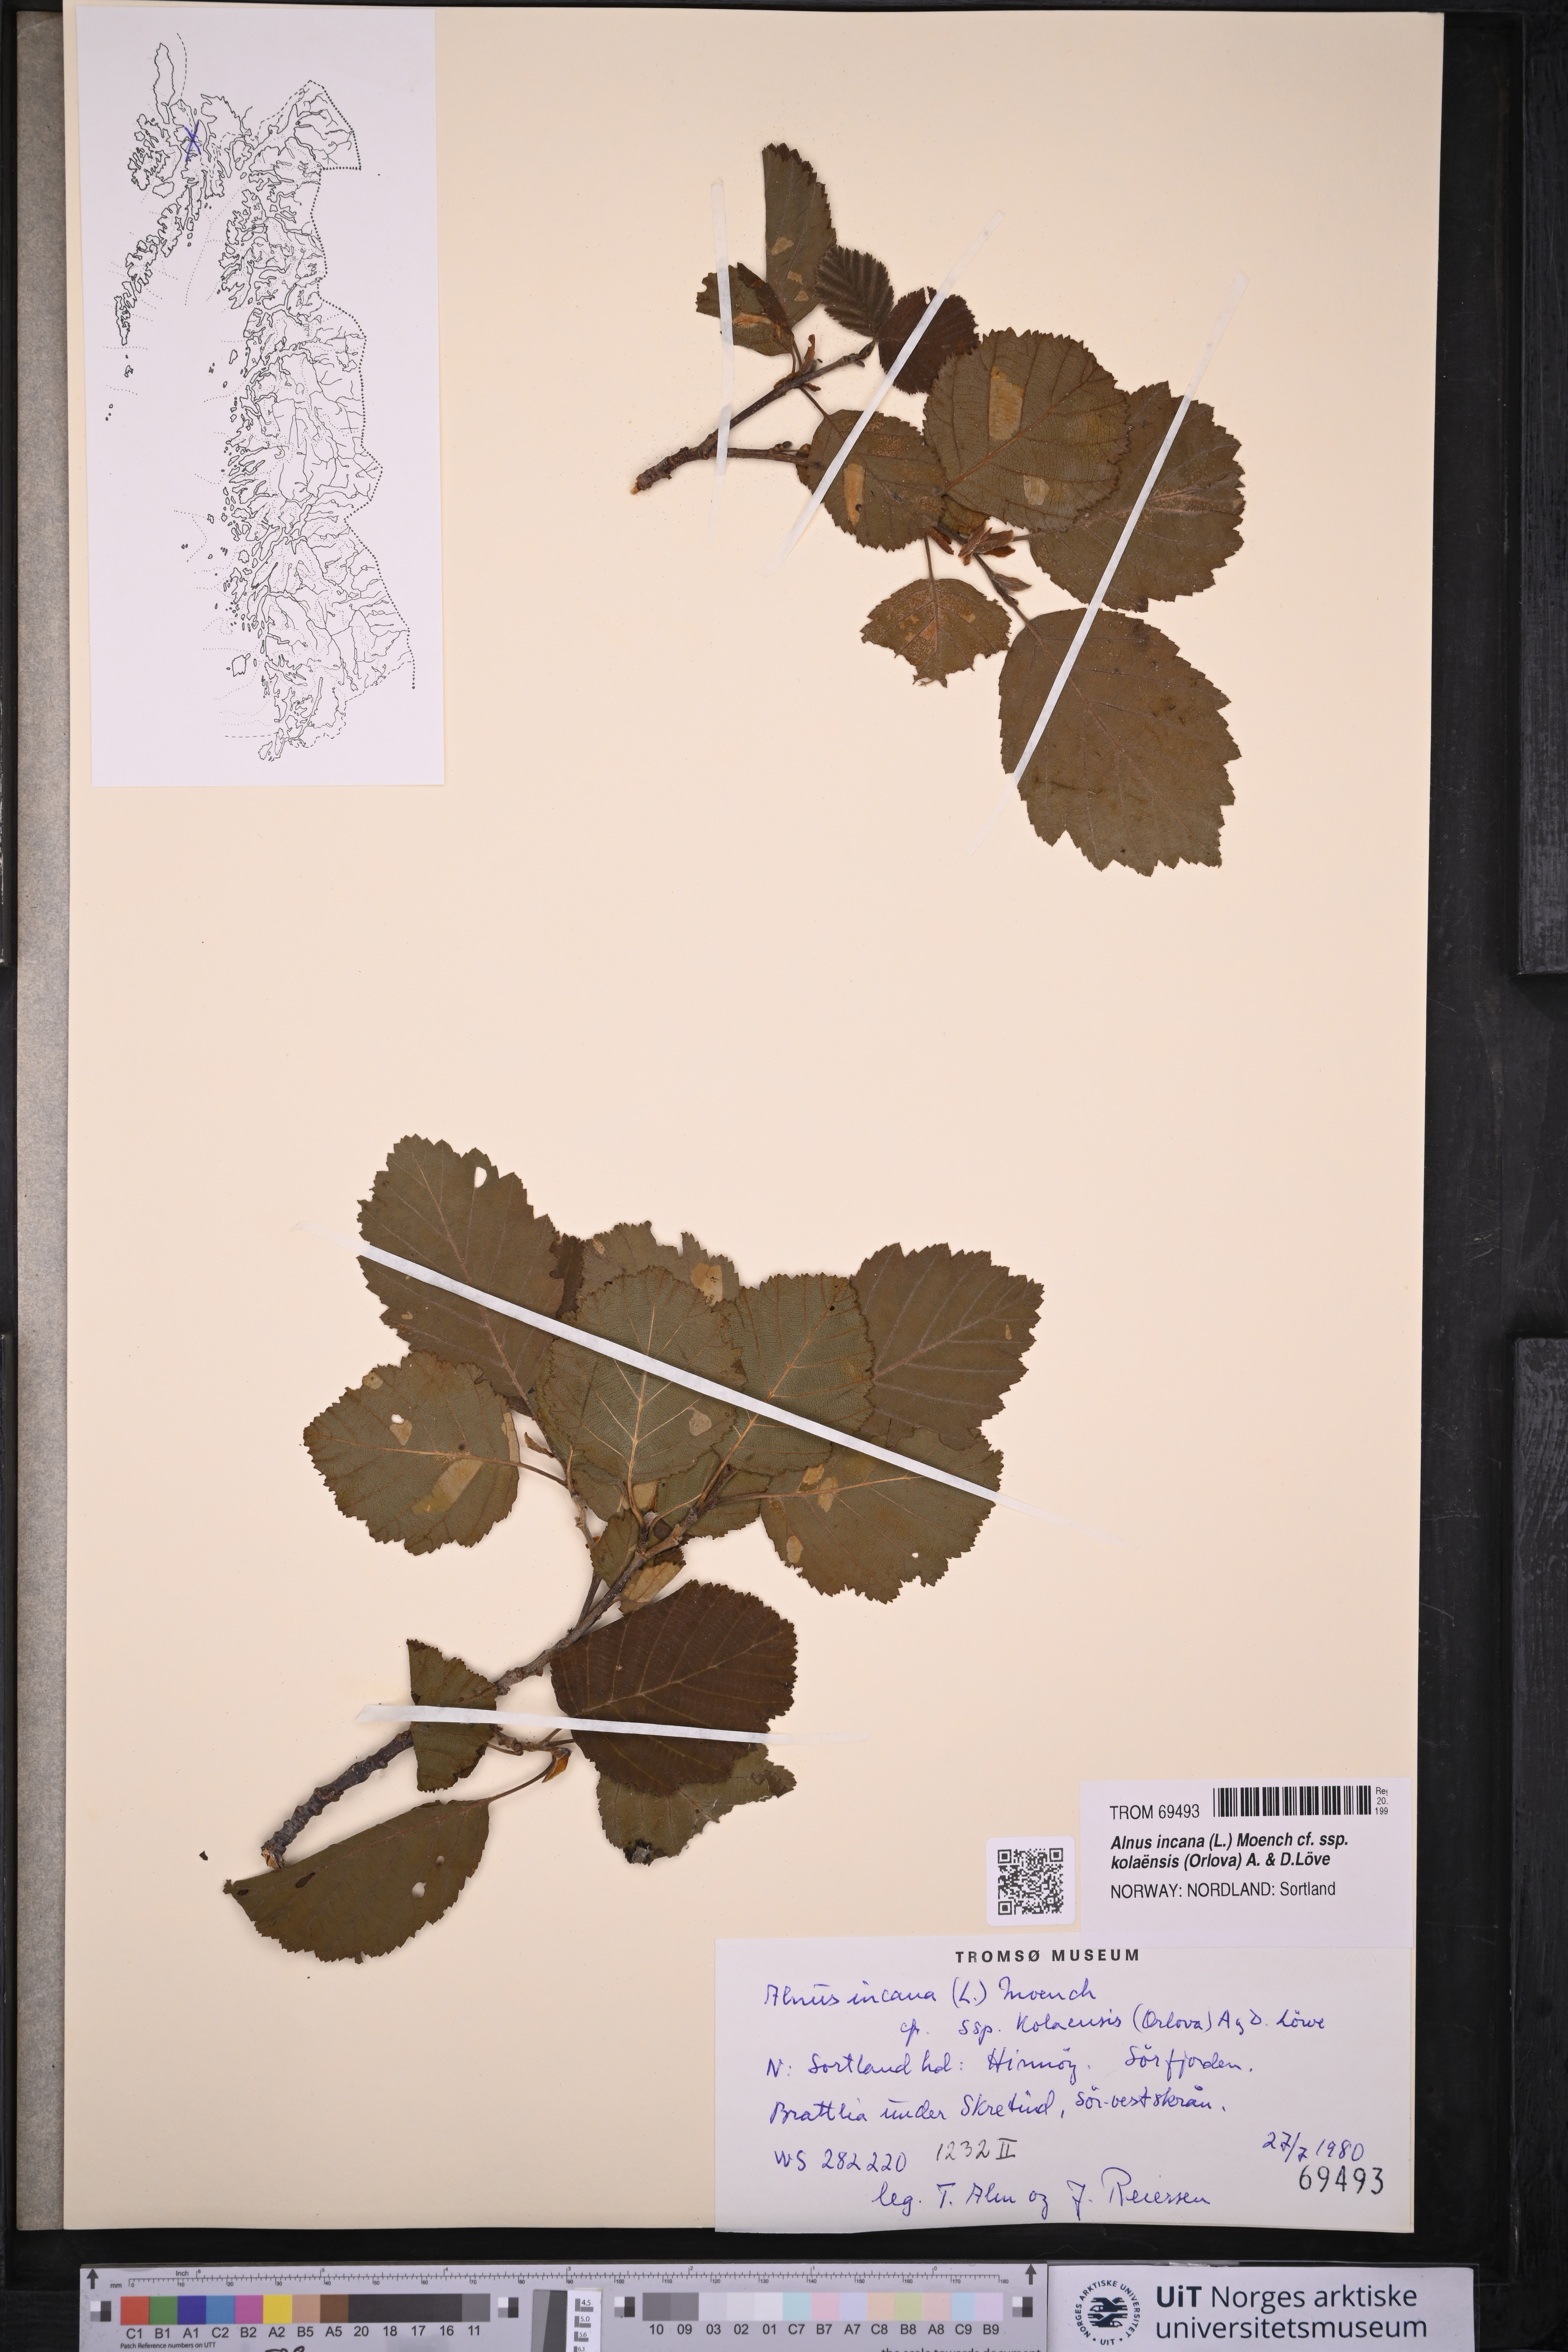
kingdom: Plantae
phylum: Tracheophyta
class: Magnoliopsida
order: Fagales
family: Betulaceae
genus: Alnus
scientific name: Alnus incana
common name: Grey alder
